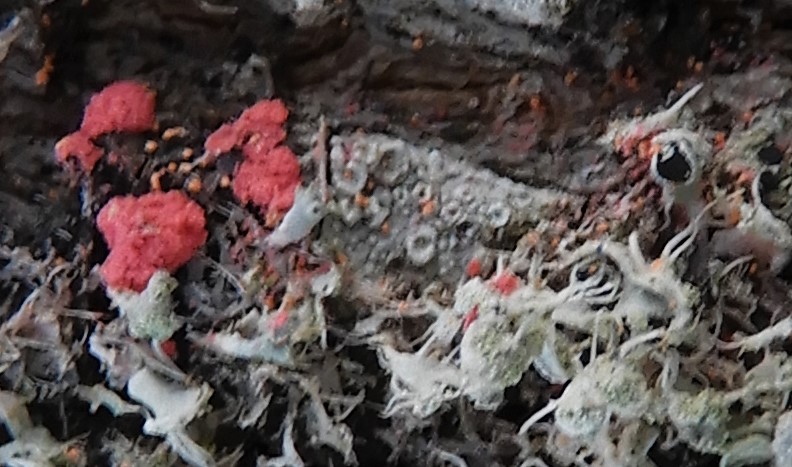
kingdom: Fungi
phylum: Ascomycota
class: Sordariomycetes
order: Hypocreales
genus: Illosporiopsis
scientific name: Illosporiopsis christiansenii
